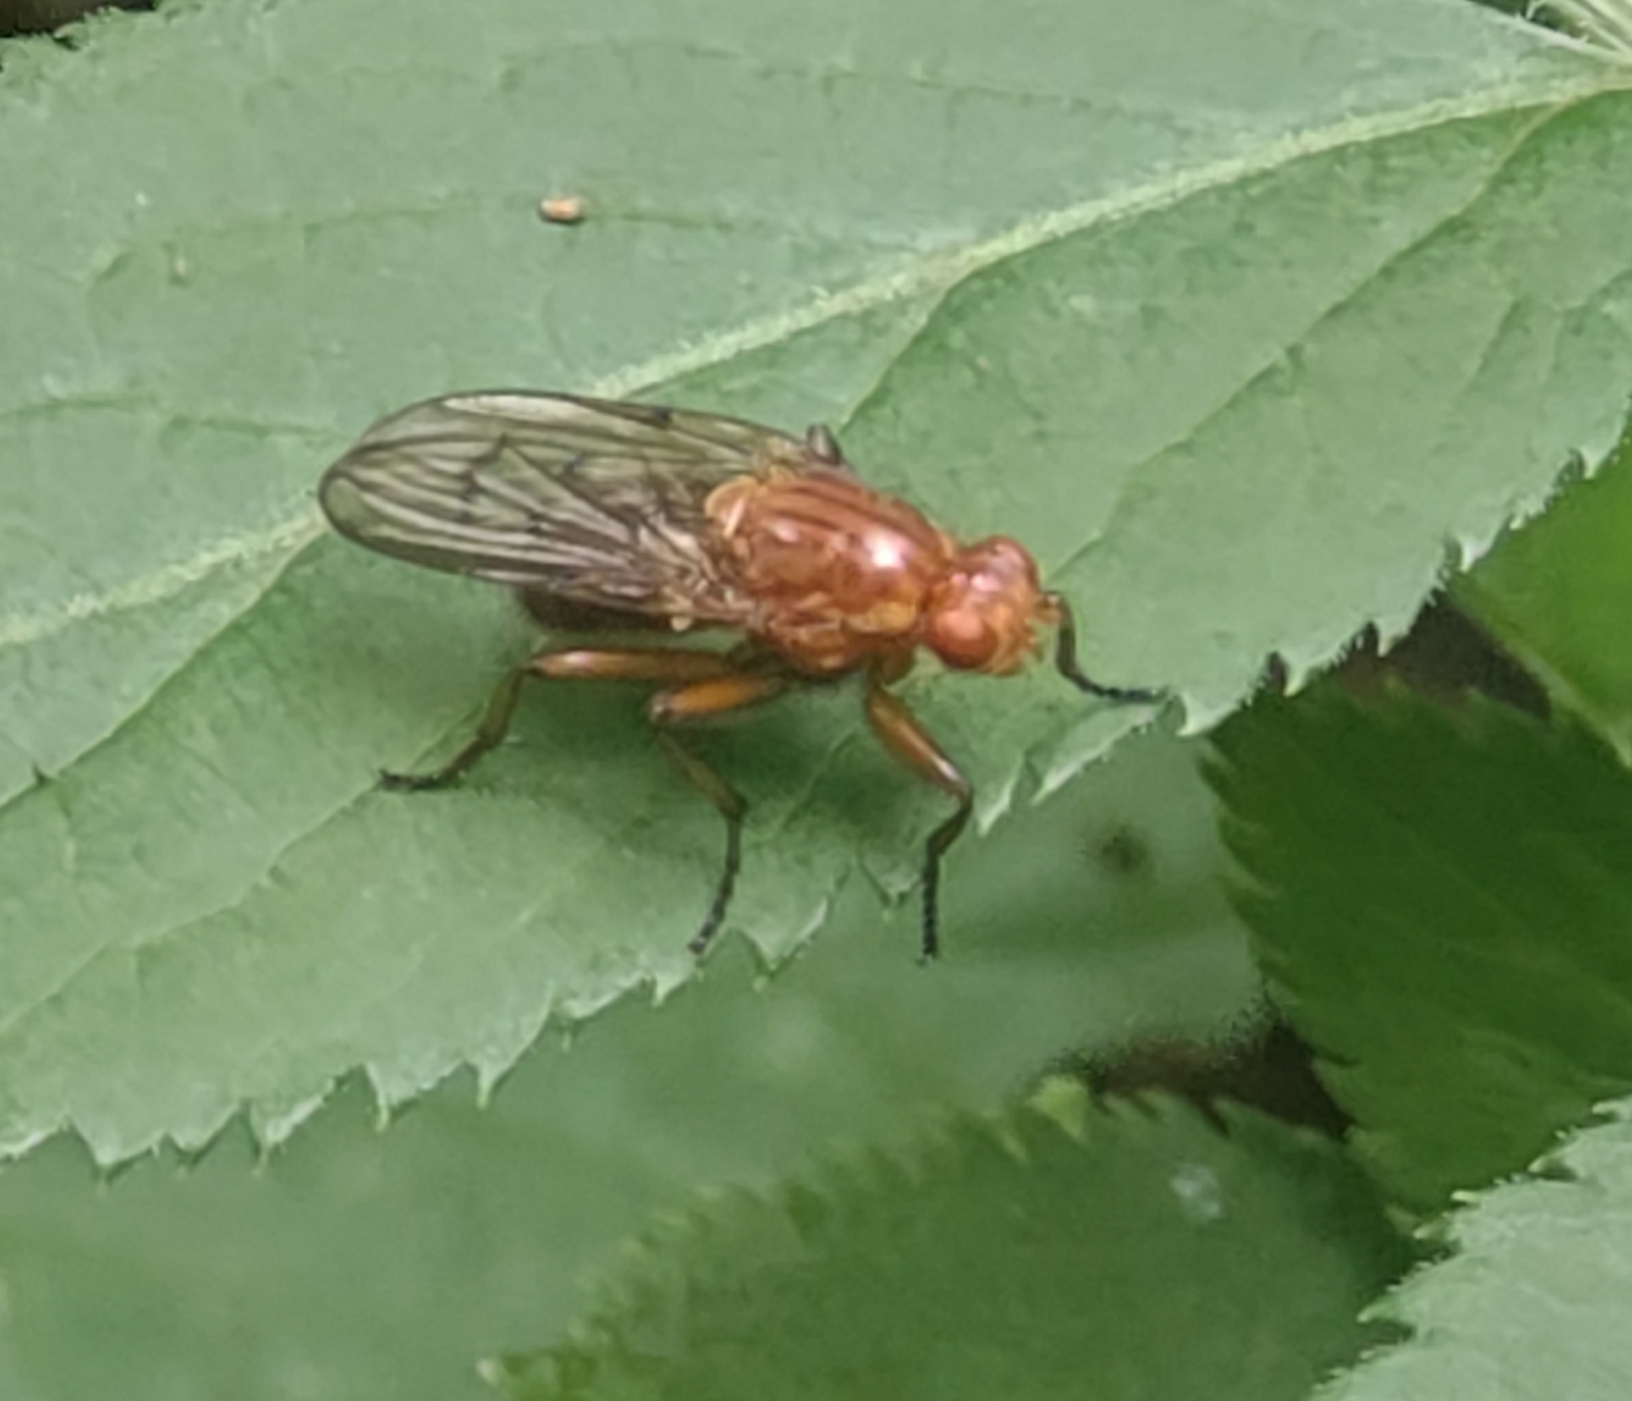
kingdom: Animalia
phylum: Arthropoda
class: Insecta
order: Diptera
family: Dryomyzidae
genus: Dryomyza
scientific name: Dryomyza anilis
